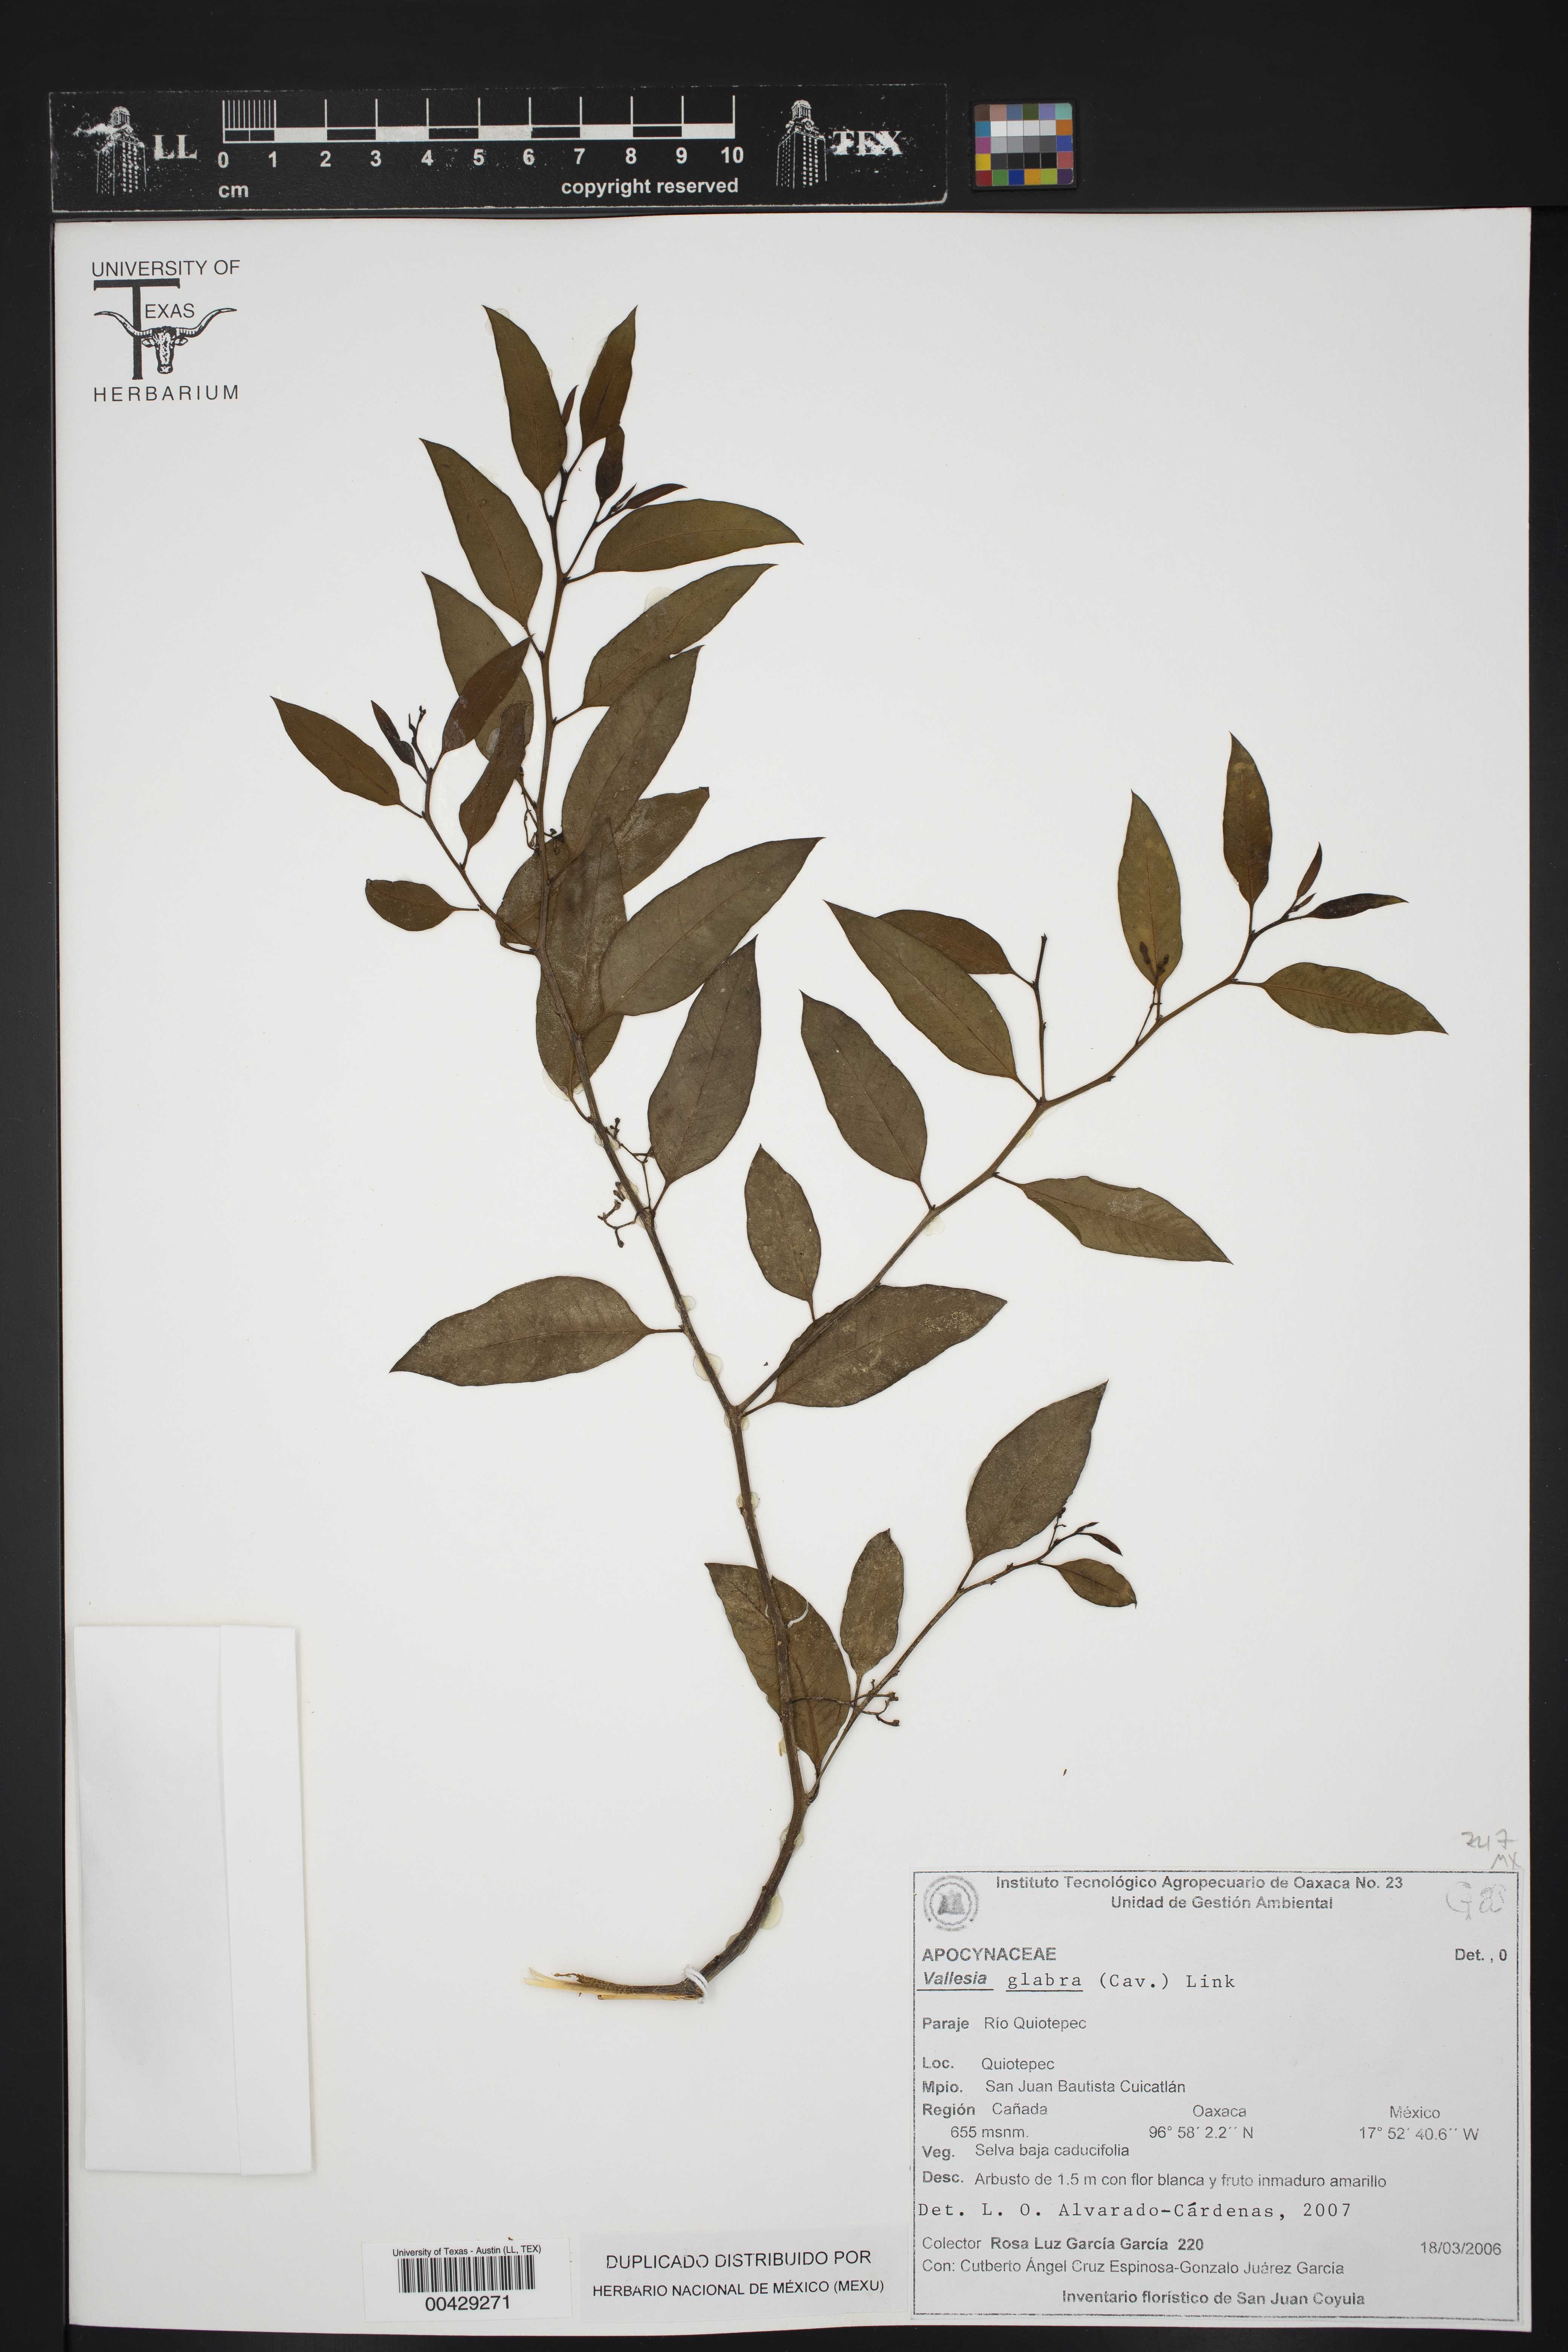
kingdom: Plantae
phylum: Tracheophyta
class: Magnoliopsida
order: Gentianales
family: Apocynaceae
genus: Vallesia
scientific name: Vallesia glabra
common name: Pearlberry
